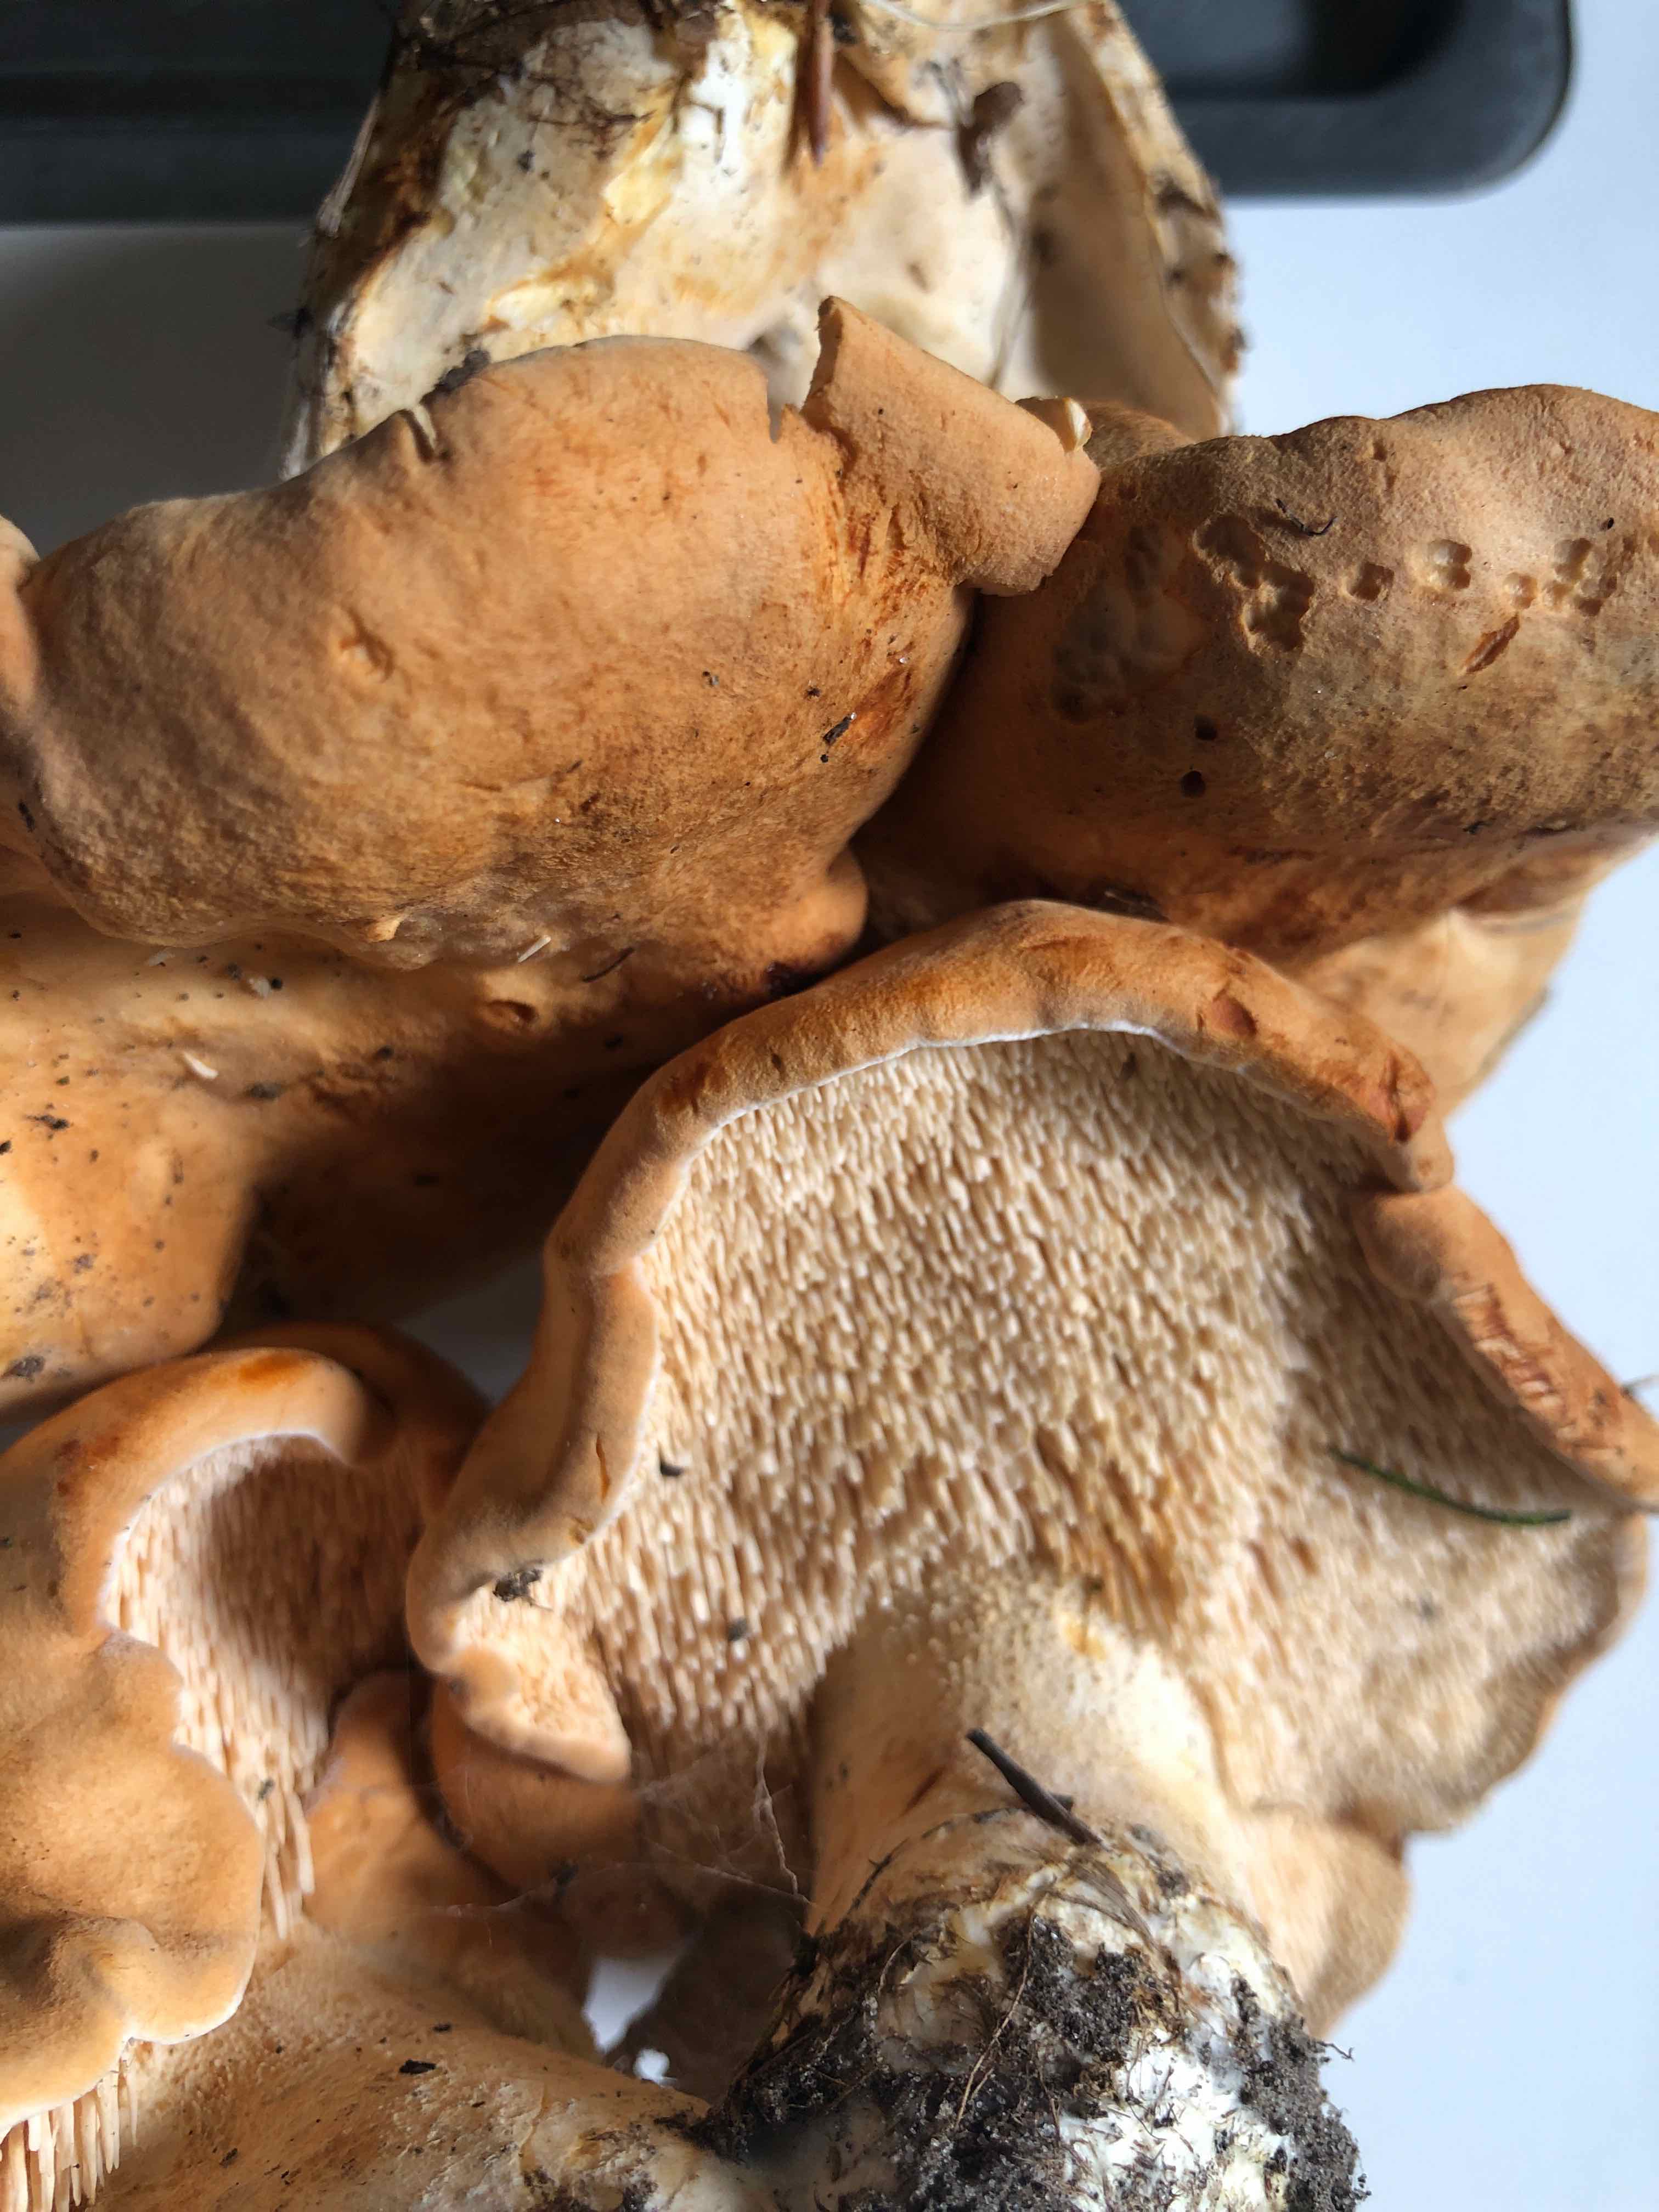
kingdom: Fungi
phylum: Basidiomycota
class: Agaricomycetes
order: Cantharellales
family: Hydnaceae
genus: Hydnum
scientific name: Hydnum rufescens
